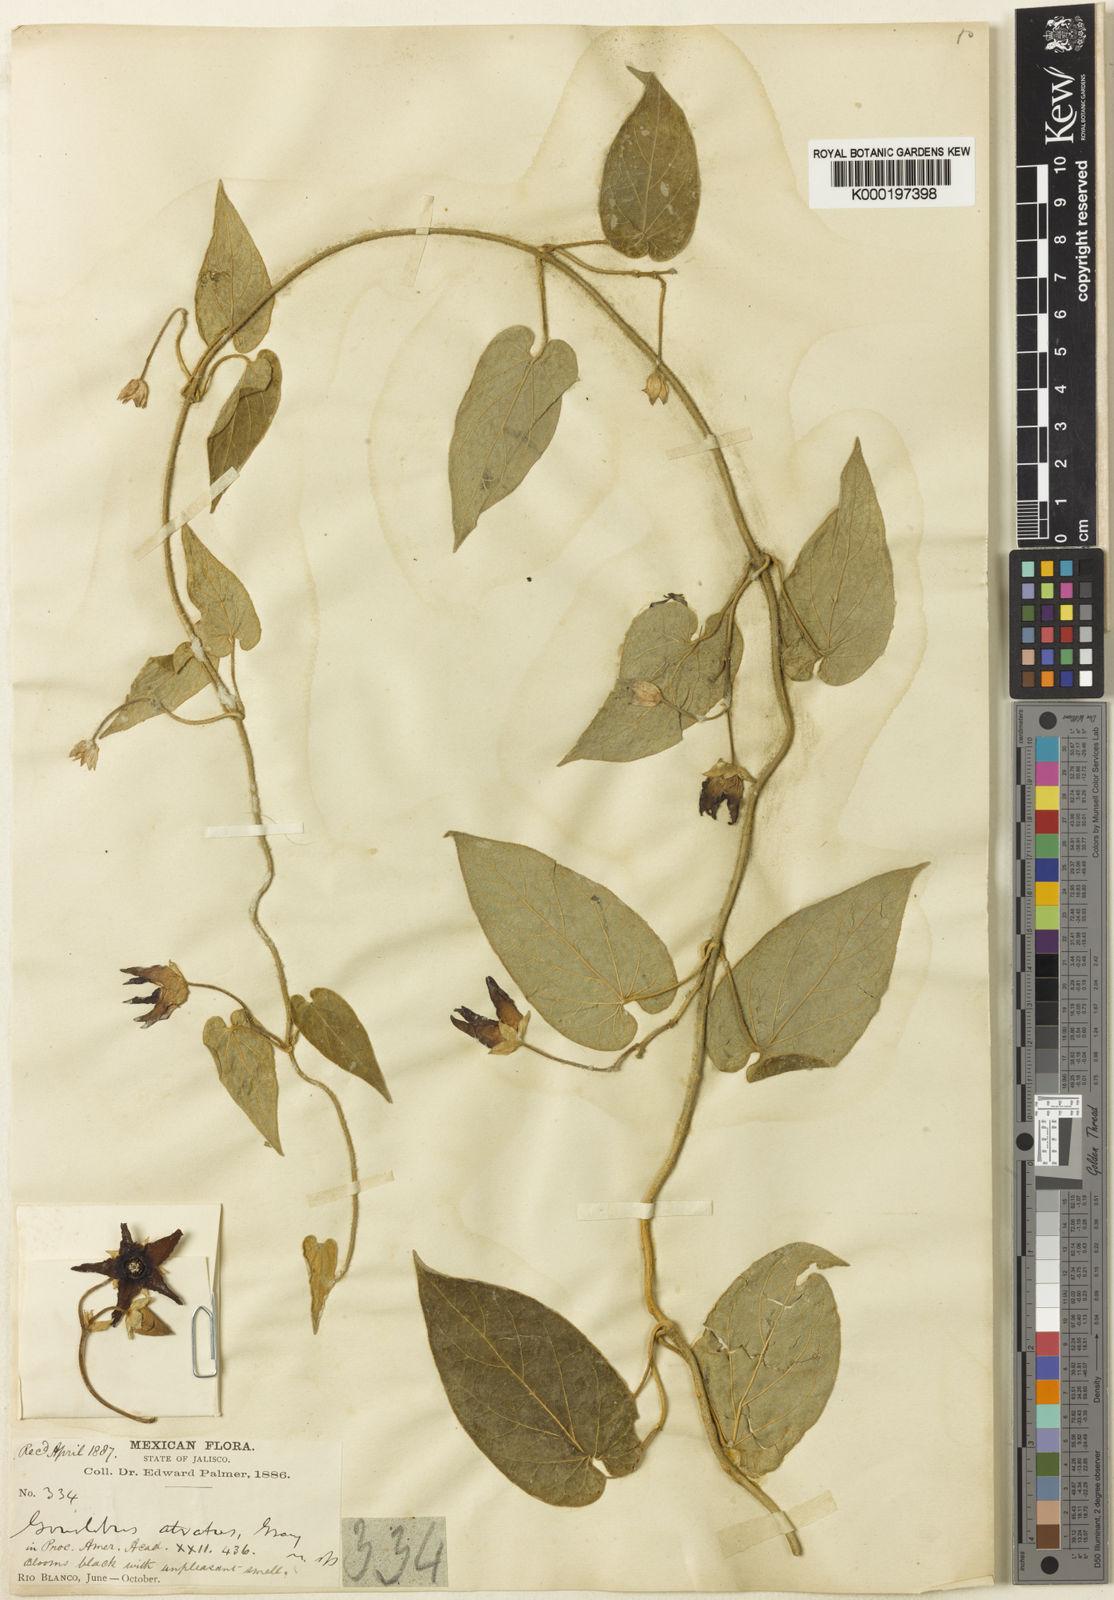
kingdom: Plantae
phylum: Tracheophyta
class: Magnoliopsida
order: Gentianales
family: Apocynaceae
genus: Matelea
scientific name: Matelea pilosa
